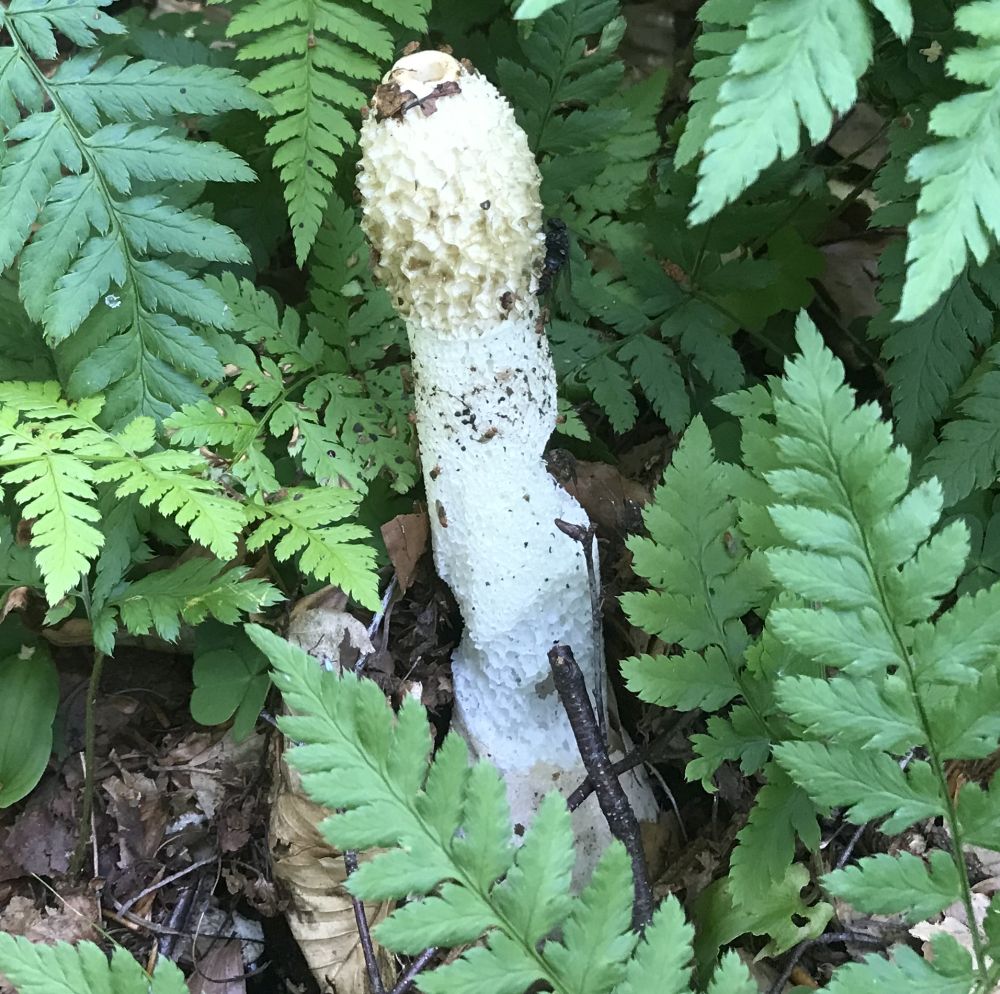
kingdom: Fungi
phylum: Basidiomycota
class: Agaricomycetes
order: Phallales
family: Phallaceae
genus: Phallus
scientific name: Phallus impudicus
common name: almindelig stinksvamp
